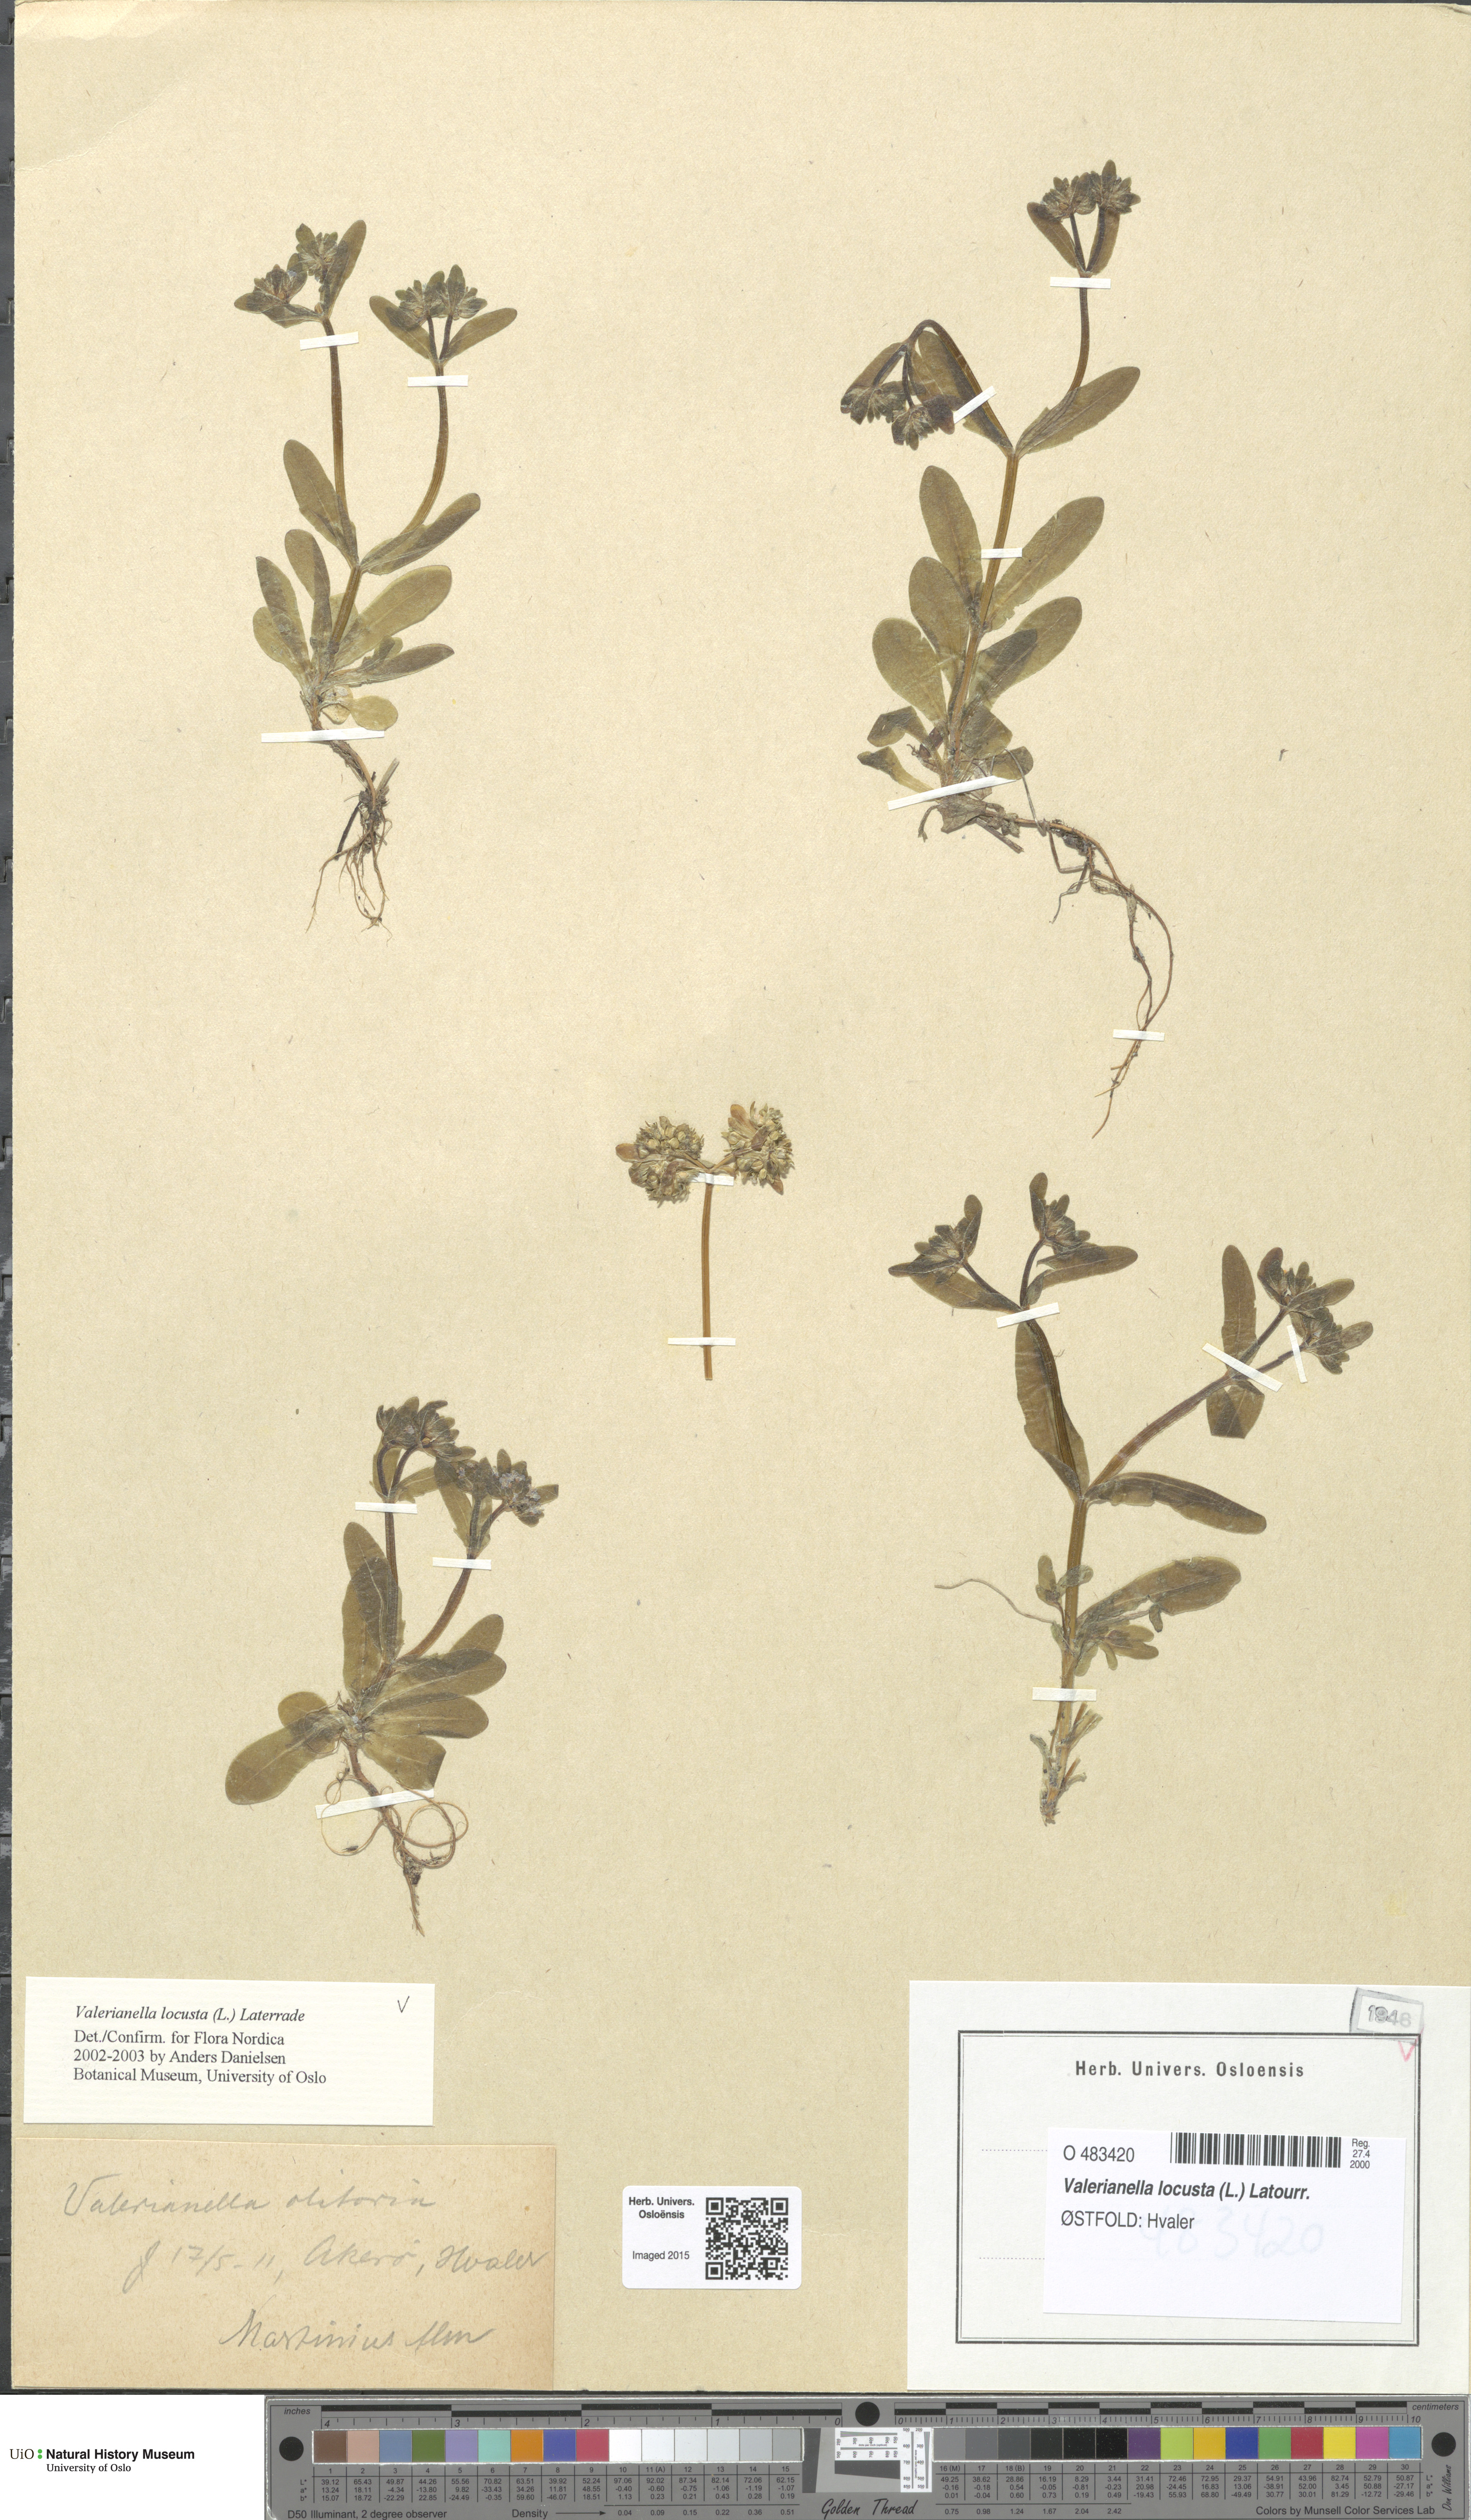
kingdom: Plantae
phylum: Tracheophyta
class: Magnoliopsida
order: Dipsacales
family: Caprifoliaceae
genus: Valerianella
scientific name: Valerianella locusta
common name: Common cornsalad
